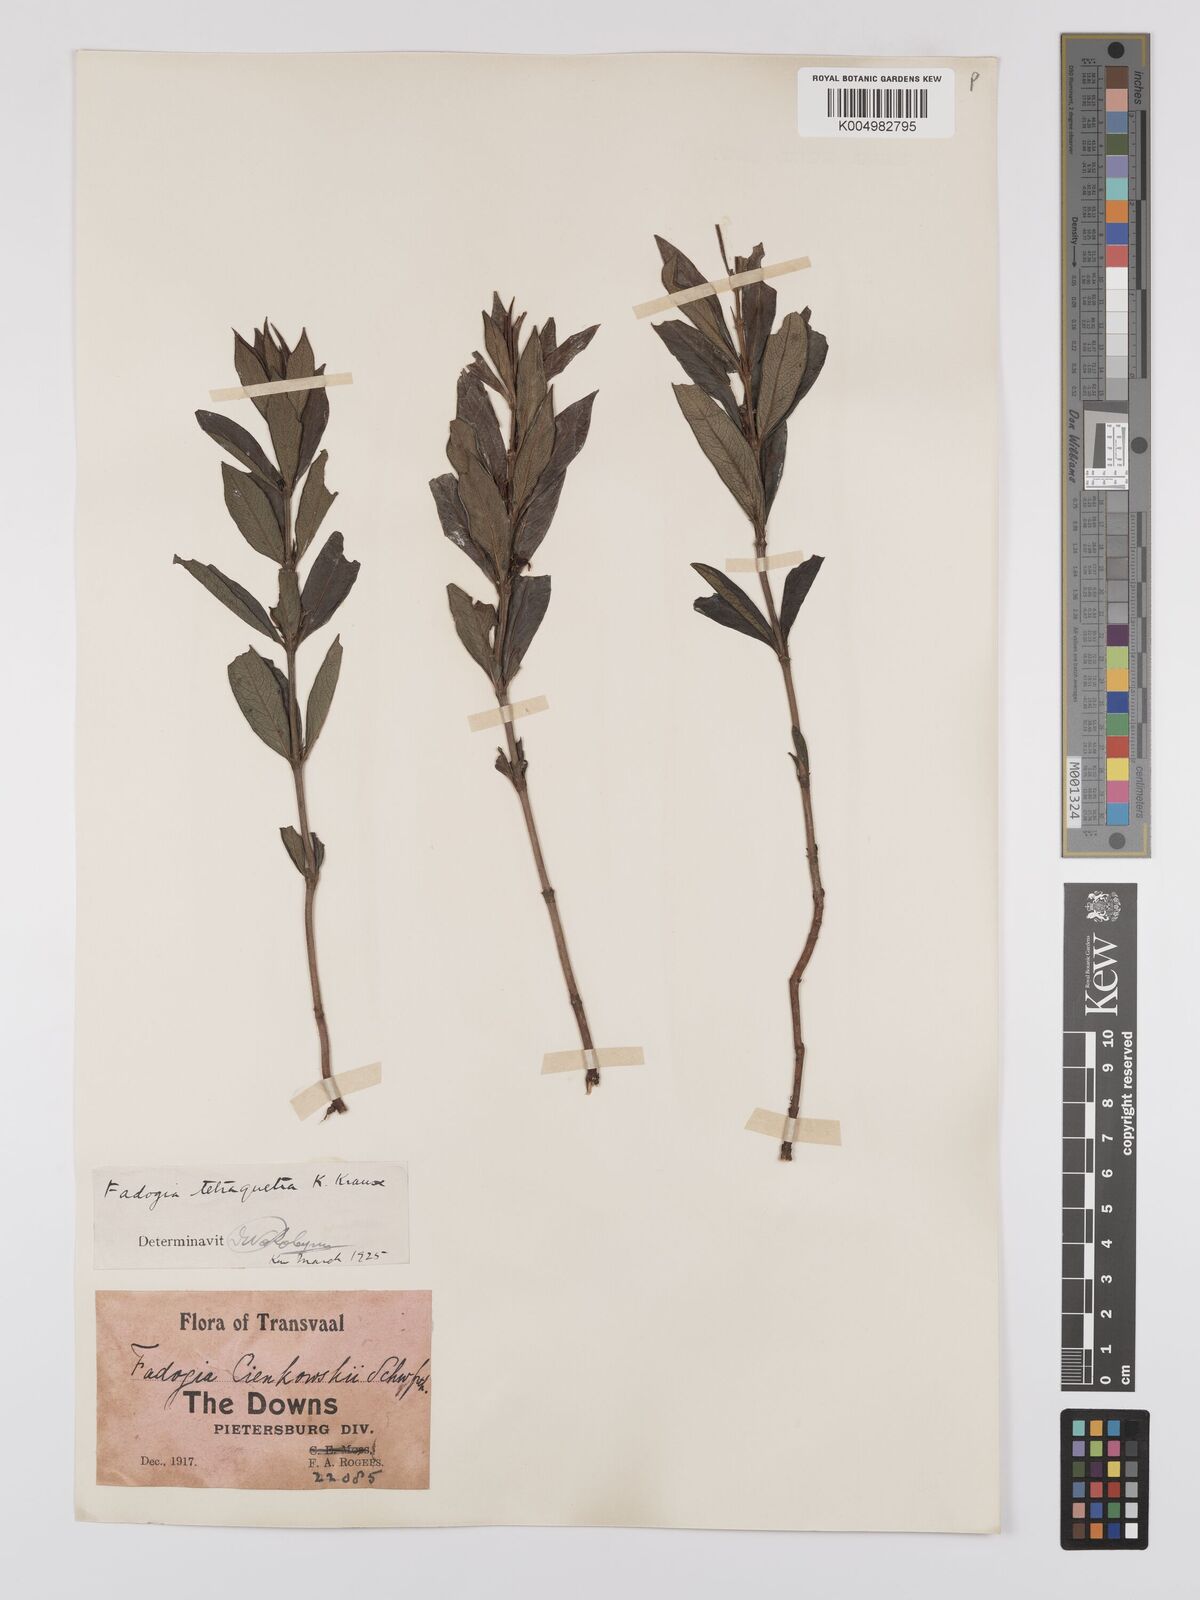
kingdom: Plantae
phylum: Tracheophyta
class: Magnoliopsida
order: Gentianales
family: Rubiaceae
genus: Fadogia
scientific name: Fadogia tetraquetra
